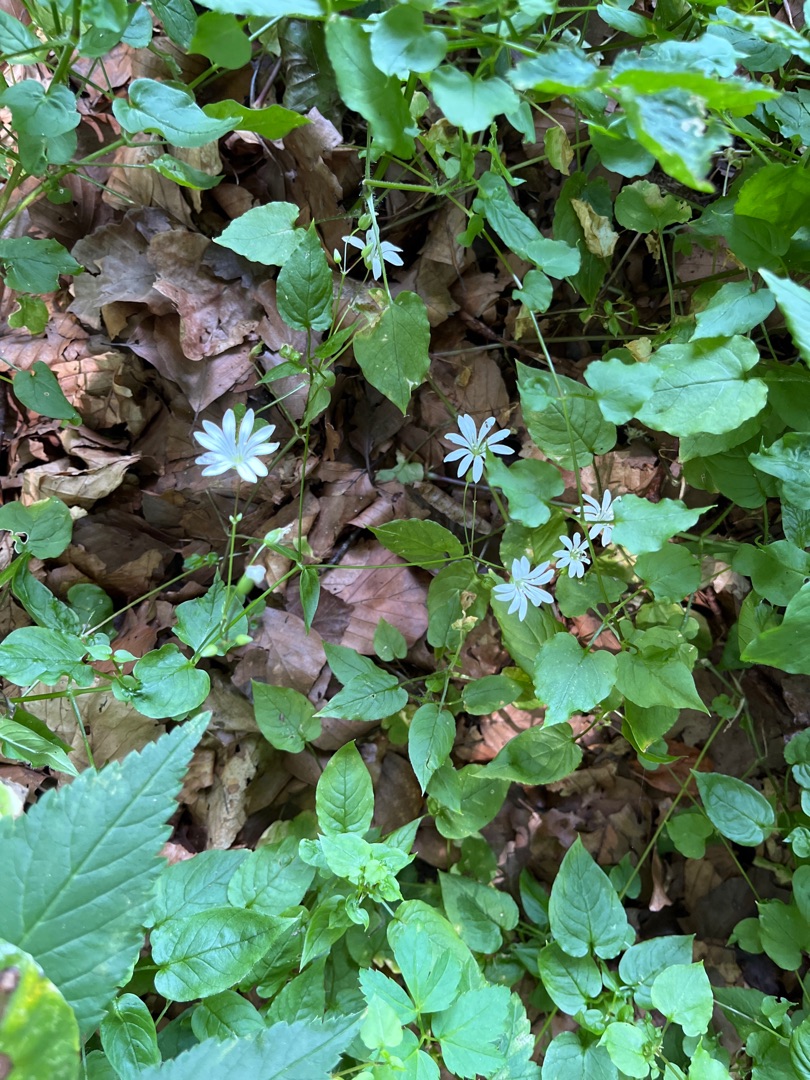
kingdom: Plantae
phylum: Tracheophyta
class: Magnoliopsida
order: Caryophyllales
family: Caryophyllaceae
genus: Stellaria
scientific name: Stellaria glochidisperma
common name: Sydlig lund-fladstjerne
